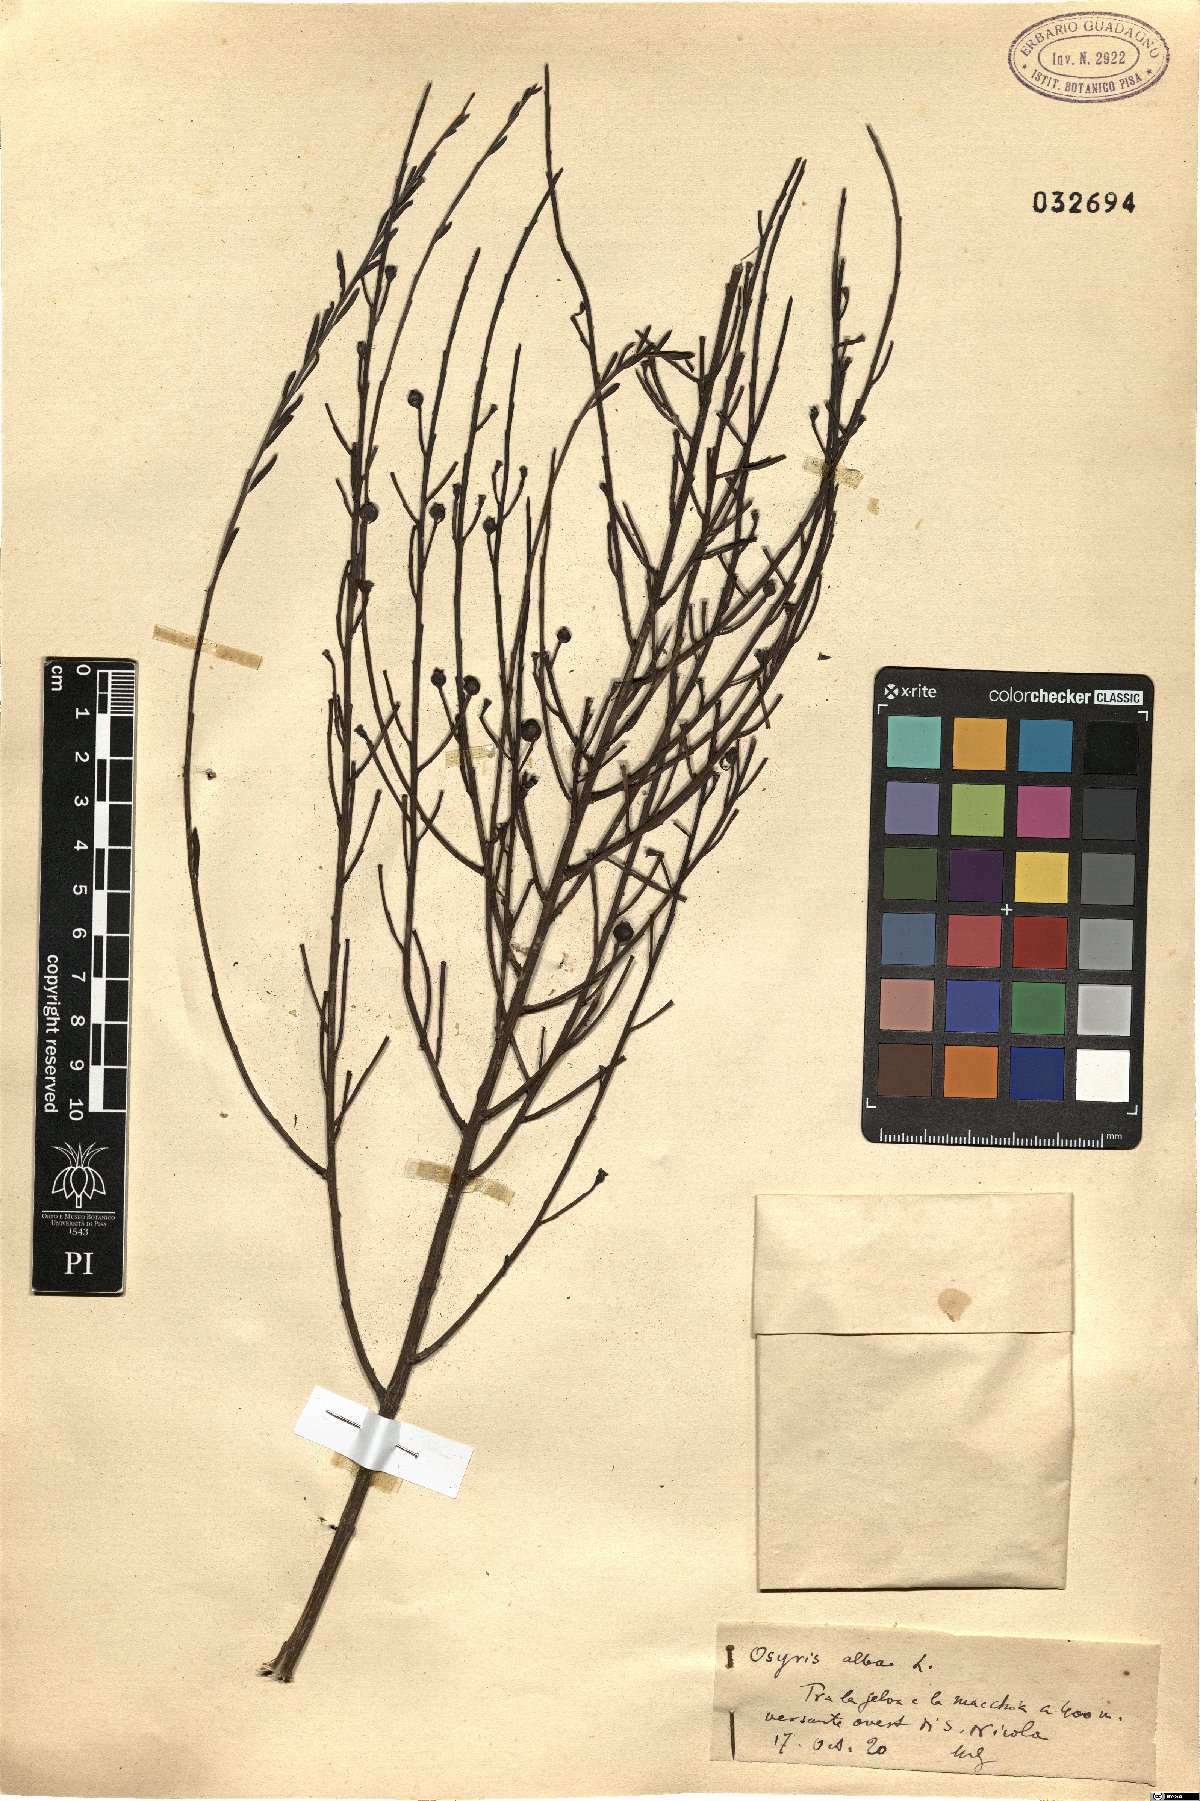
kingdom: Plantae
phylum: Tracheophyta
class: Magnoliopsida
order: Santalales
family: Santalaceae
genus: Osyris
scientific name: Osyris alba
